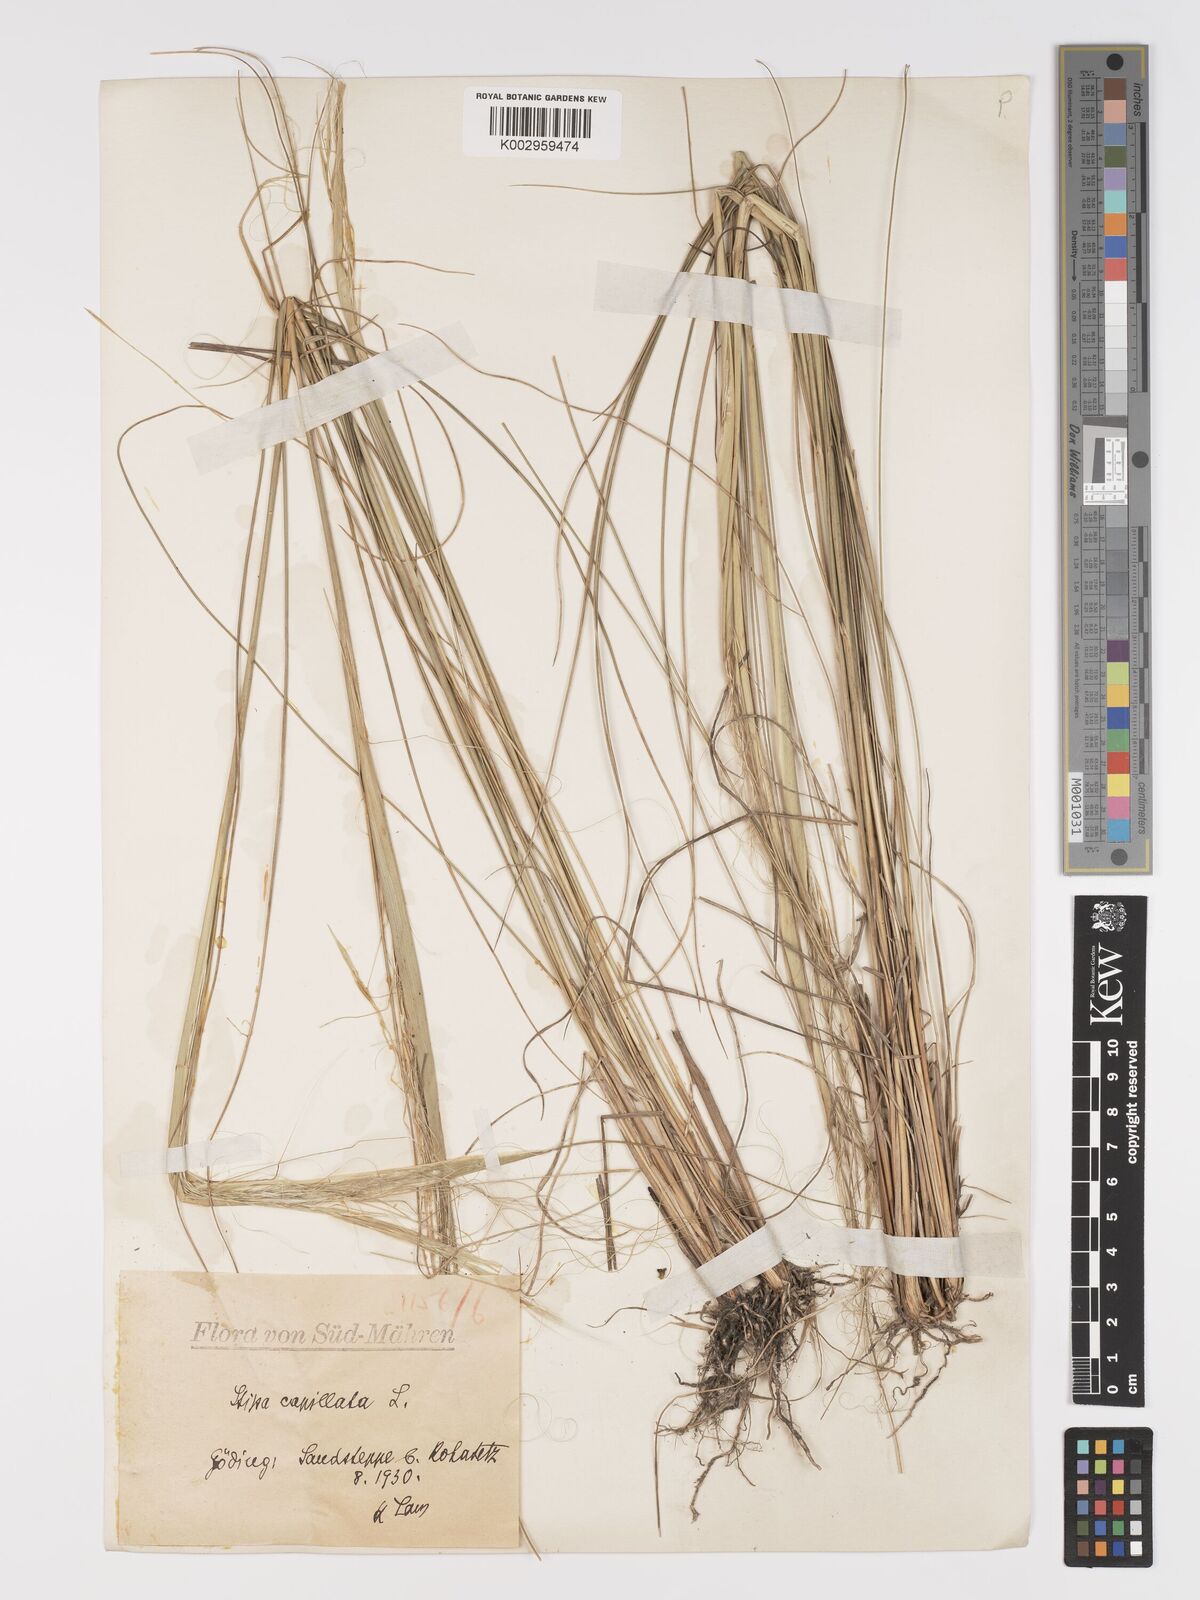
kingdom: Plantae
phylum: Tracheophyta
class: Liliopsida
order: Poales
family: Poaceae
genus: Stipa
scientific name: Stipa capillata
